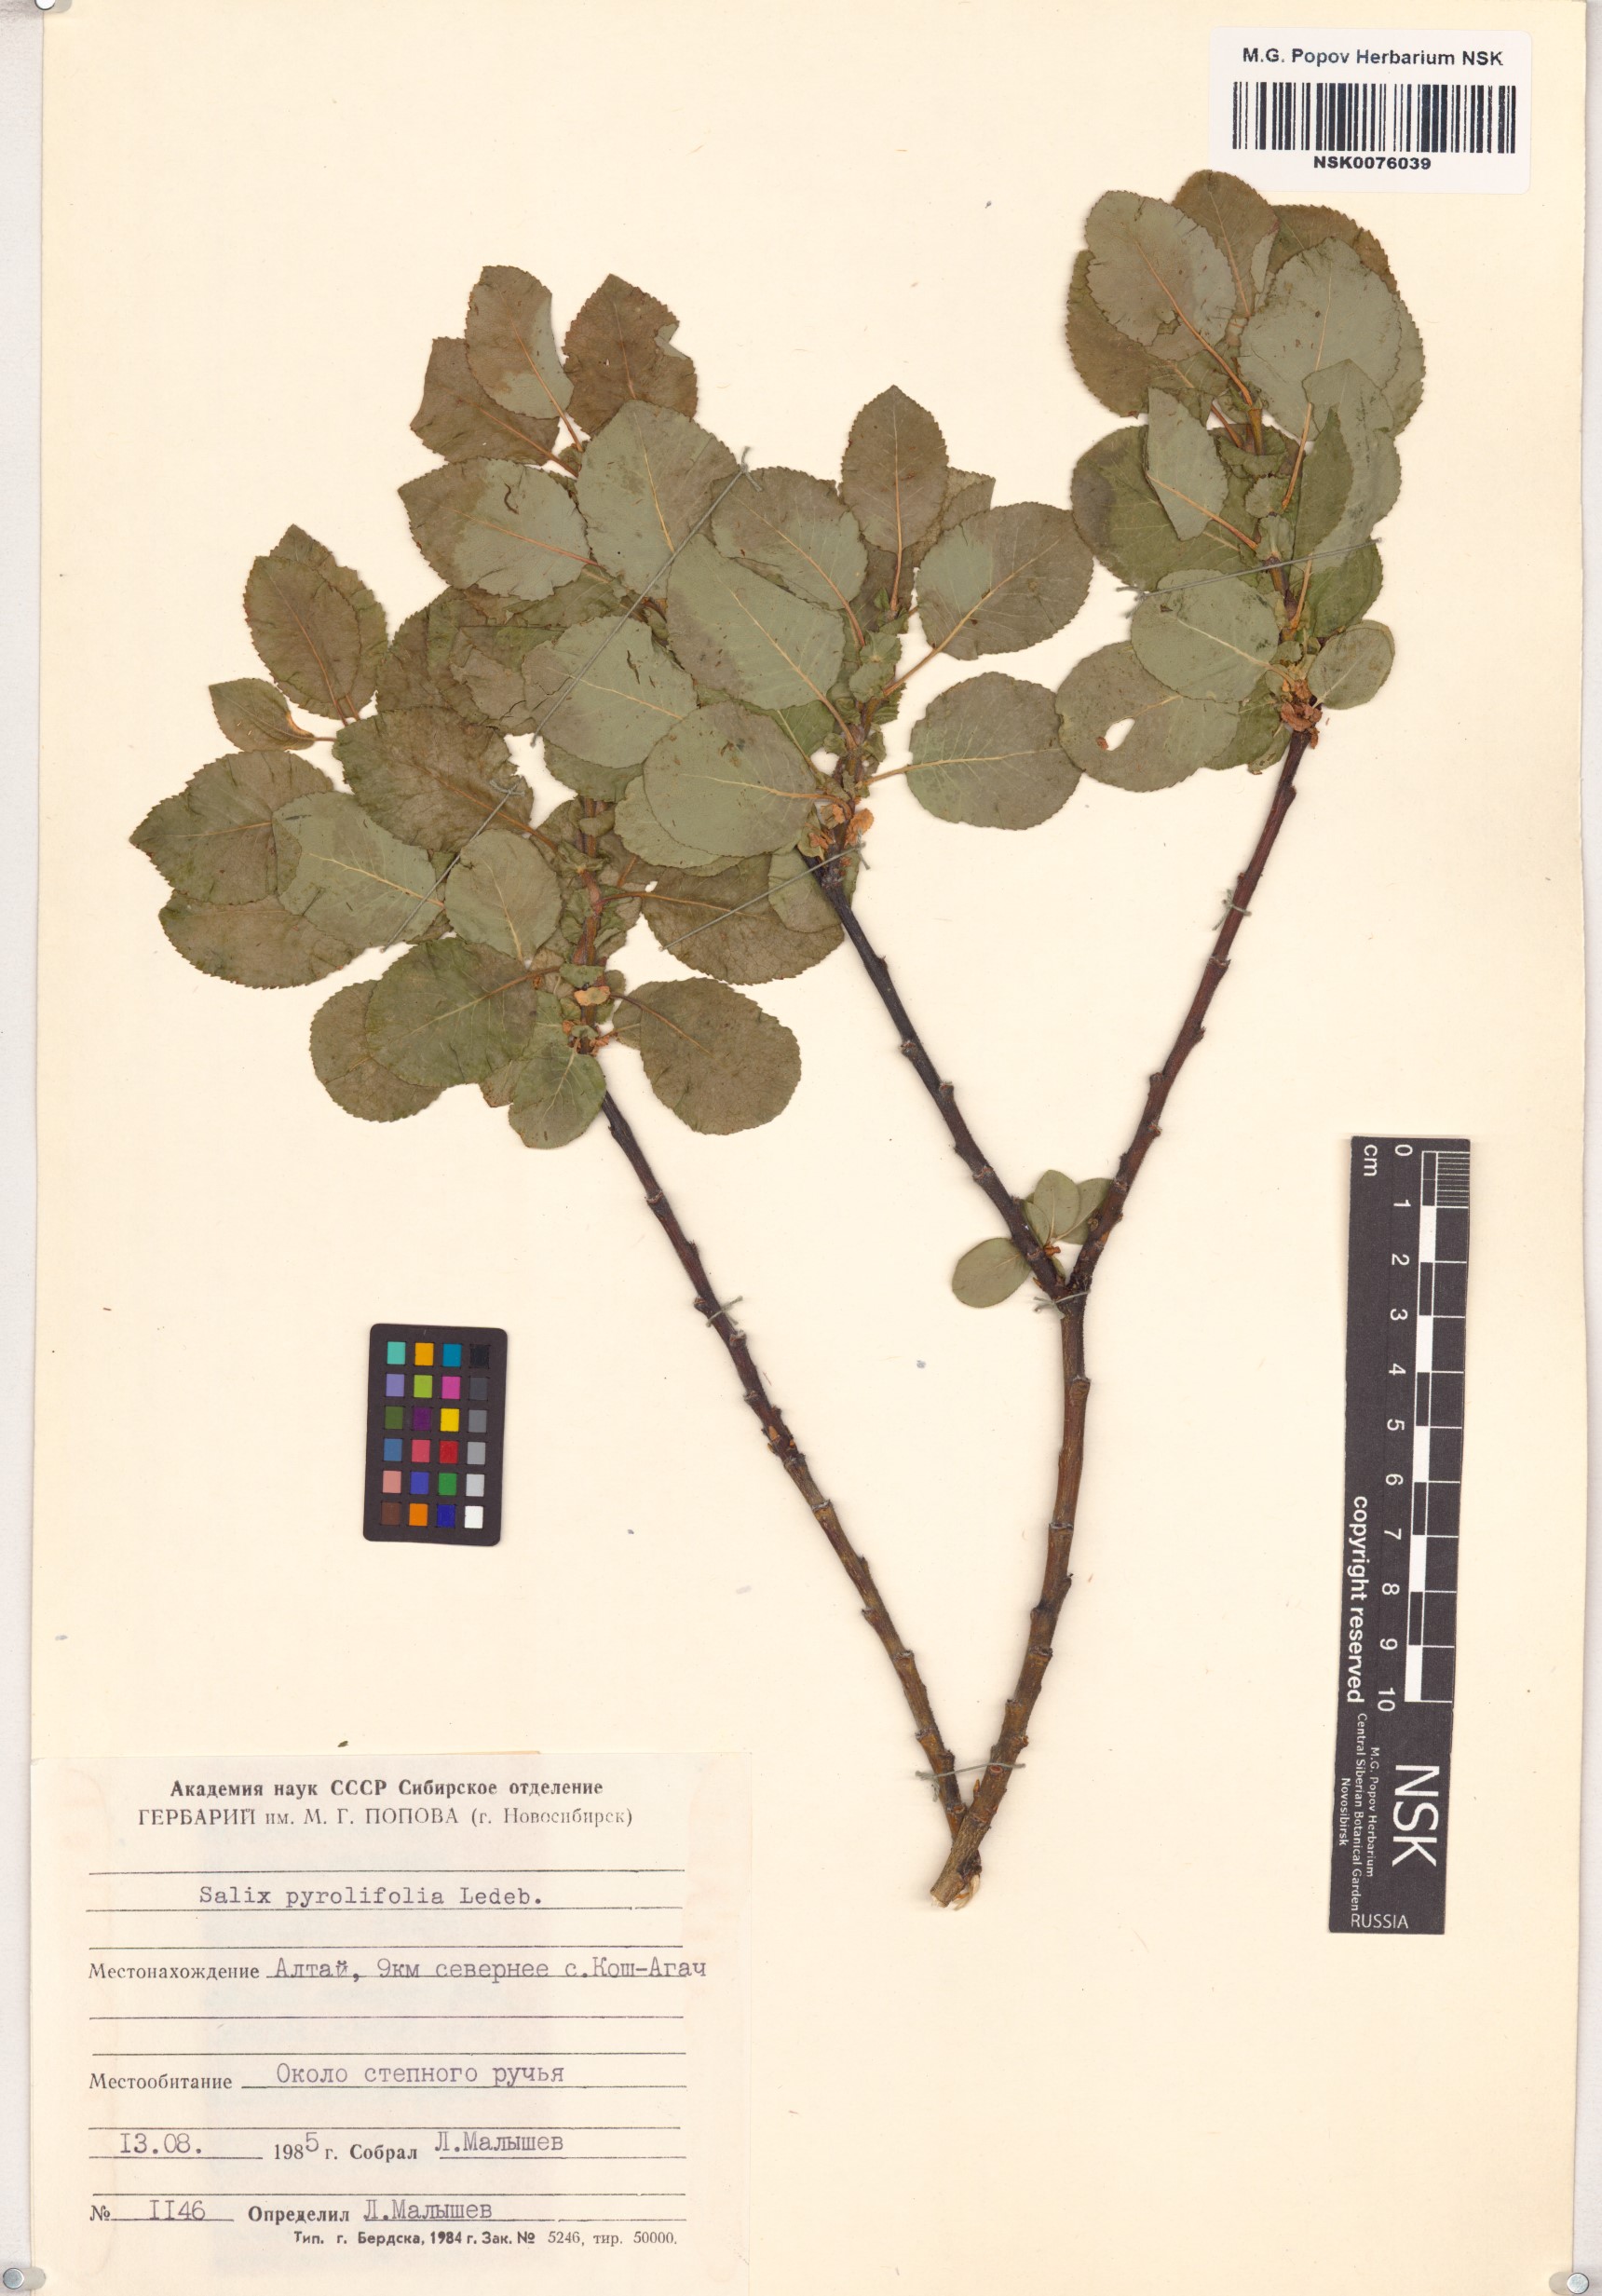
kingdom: Plantae
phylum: Tracheophyta
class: Magnoliopsida
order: Malpighiales
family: Salicaceae
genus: Salix
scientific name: Salix pyrolifolia
